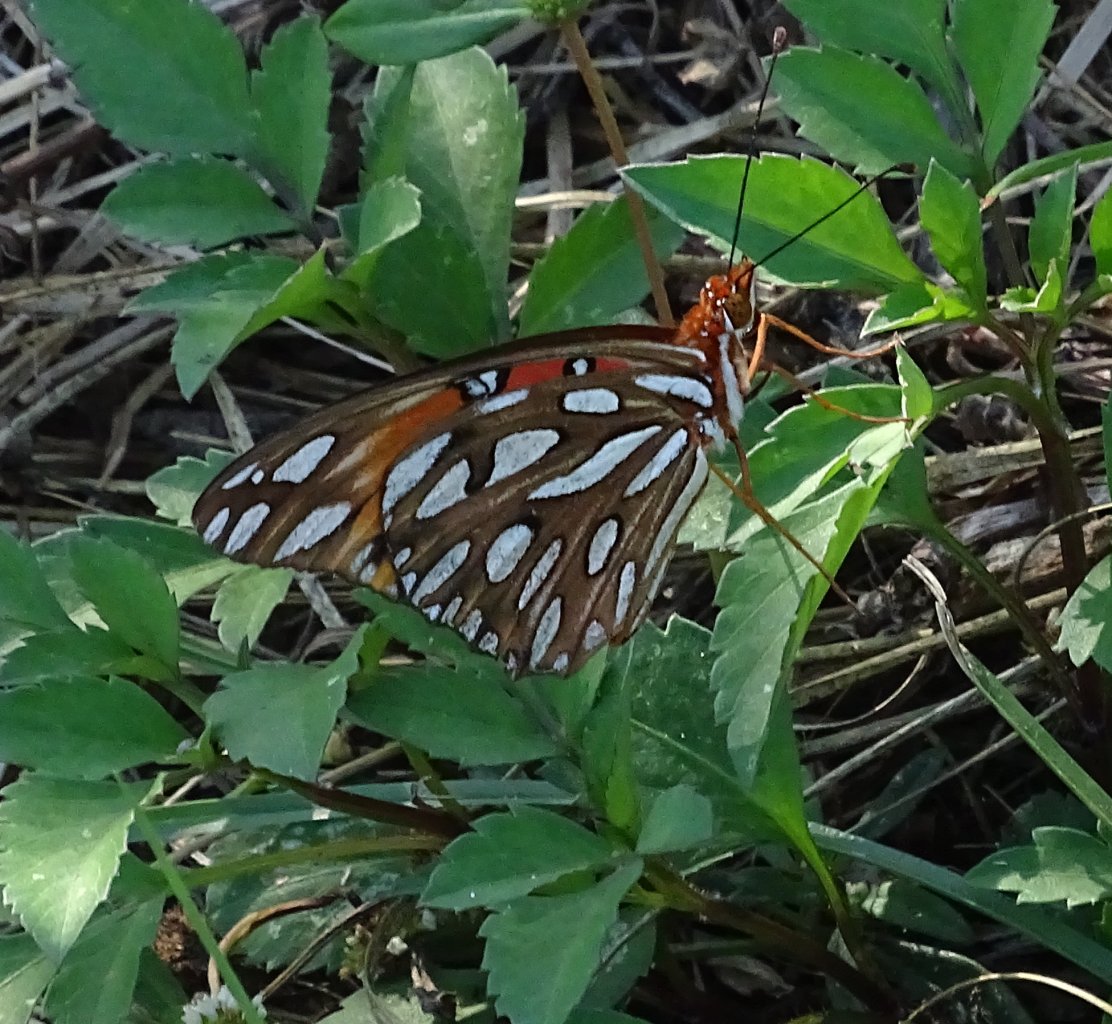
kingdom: Animalia
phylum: Arthropoda
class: Insecta
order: Lepidoptera
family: Nymphalidae
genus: Dione
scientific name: Dione vanillae
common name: Gulf Fritillary
